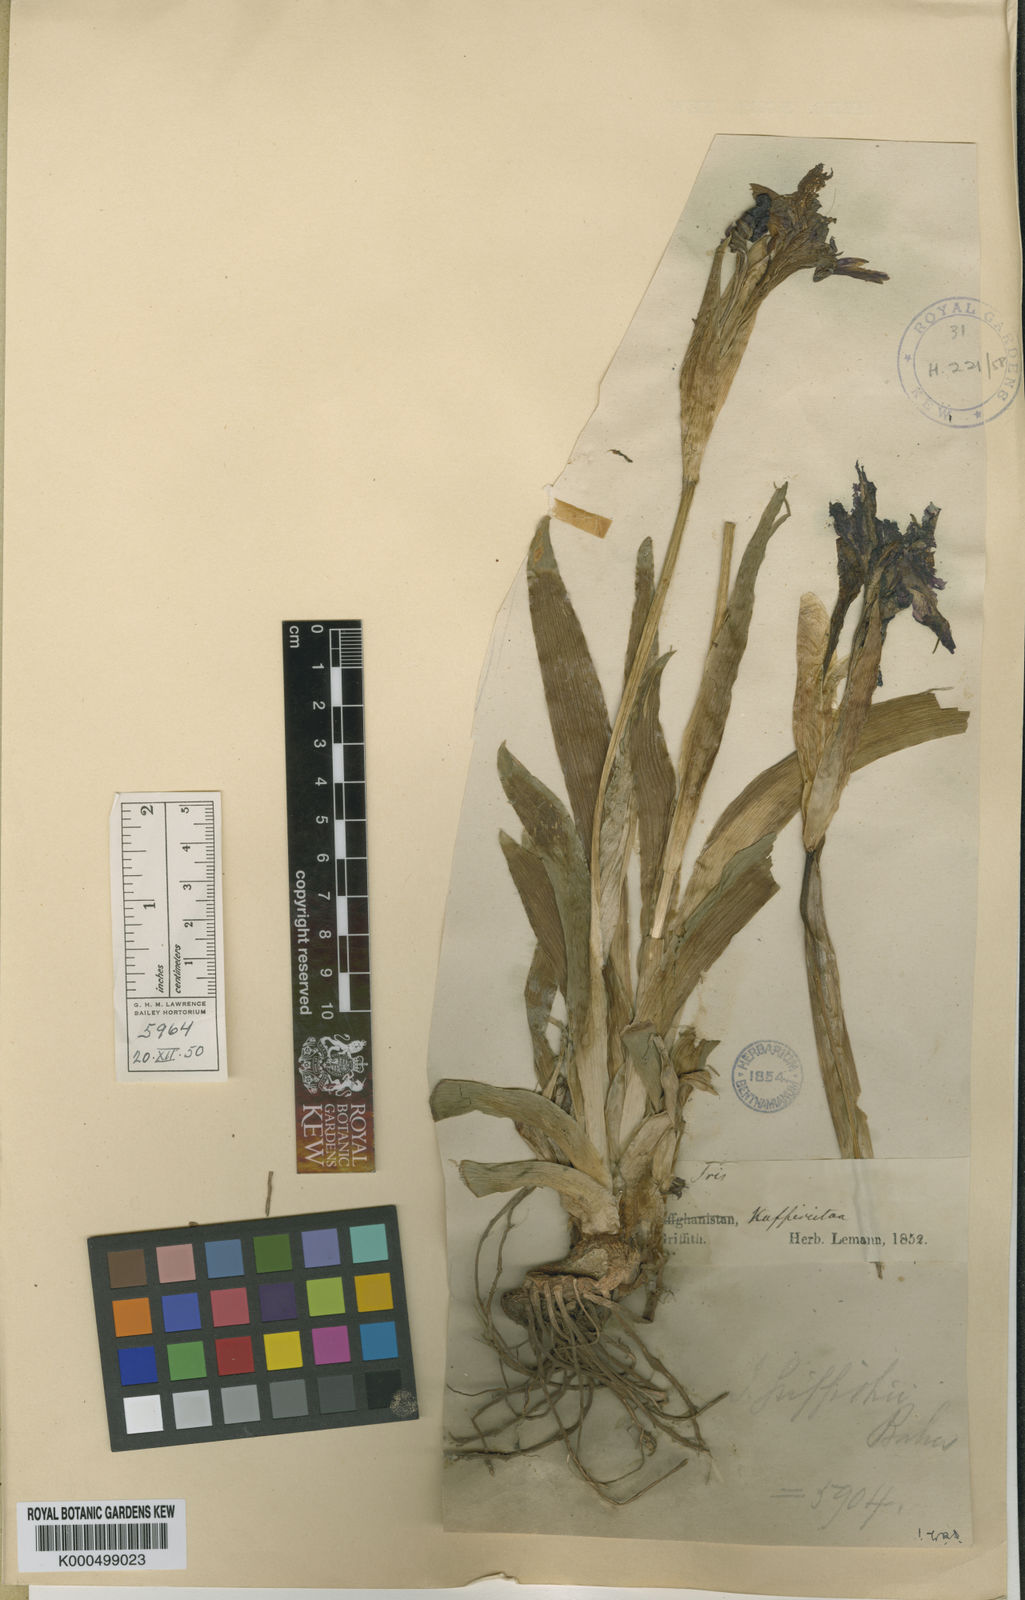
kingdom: Plantae
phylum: Tracheophyta
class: Liliopsida
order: Asparagales
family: Iridaceae
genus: Iris
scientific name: Iris griffithii
